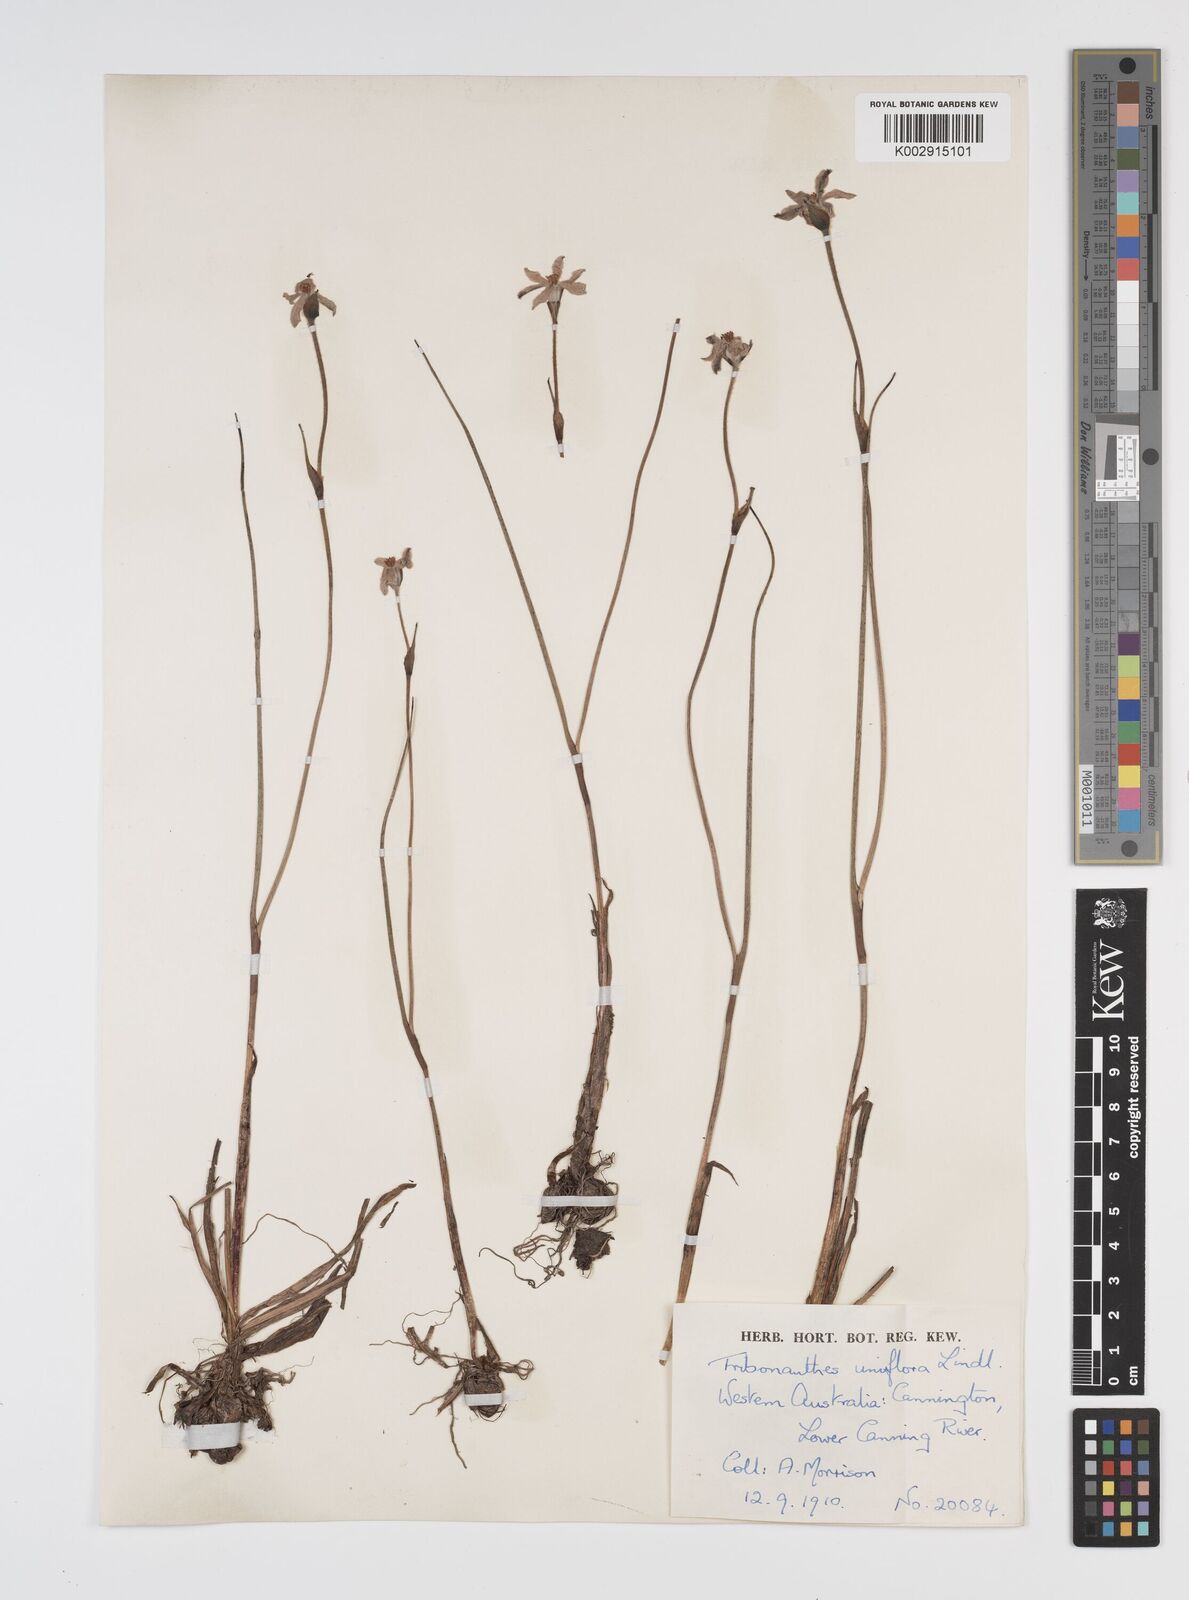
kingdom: Plantae
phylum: Tracheophyta
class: Liliopsida
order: Commelinales
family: Haemodoraceae
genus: Tribonanthes
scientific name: Tribonanthes uniflora
